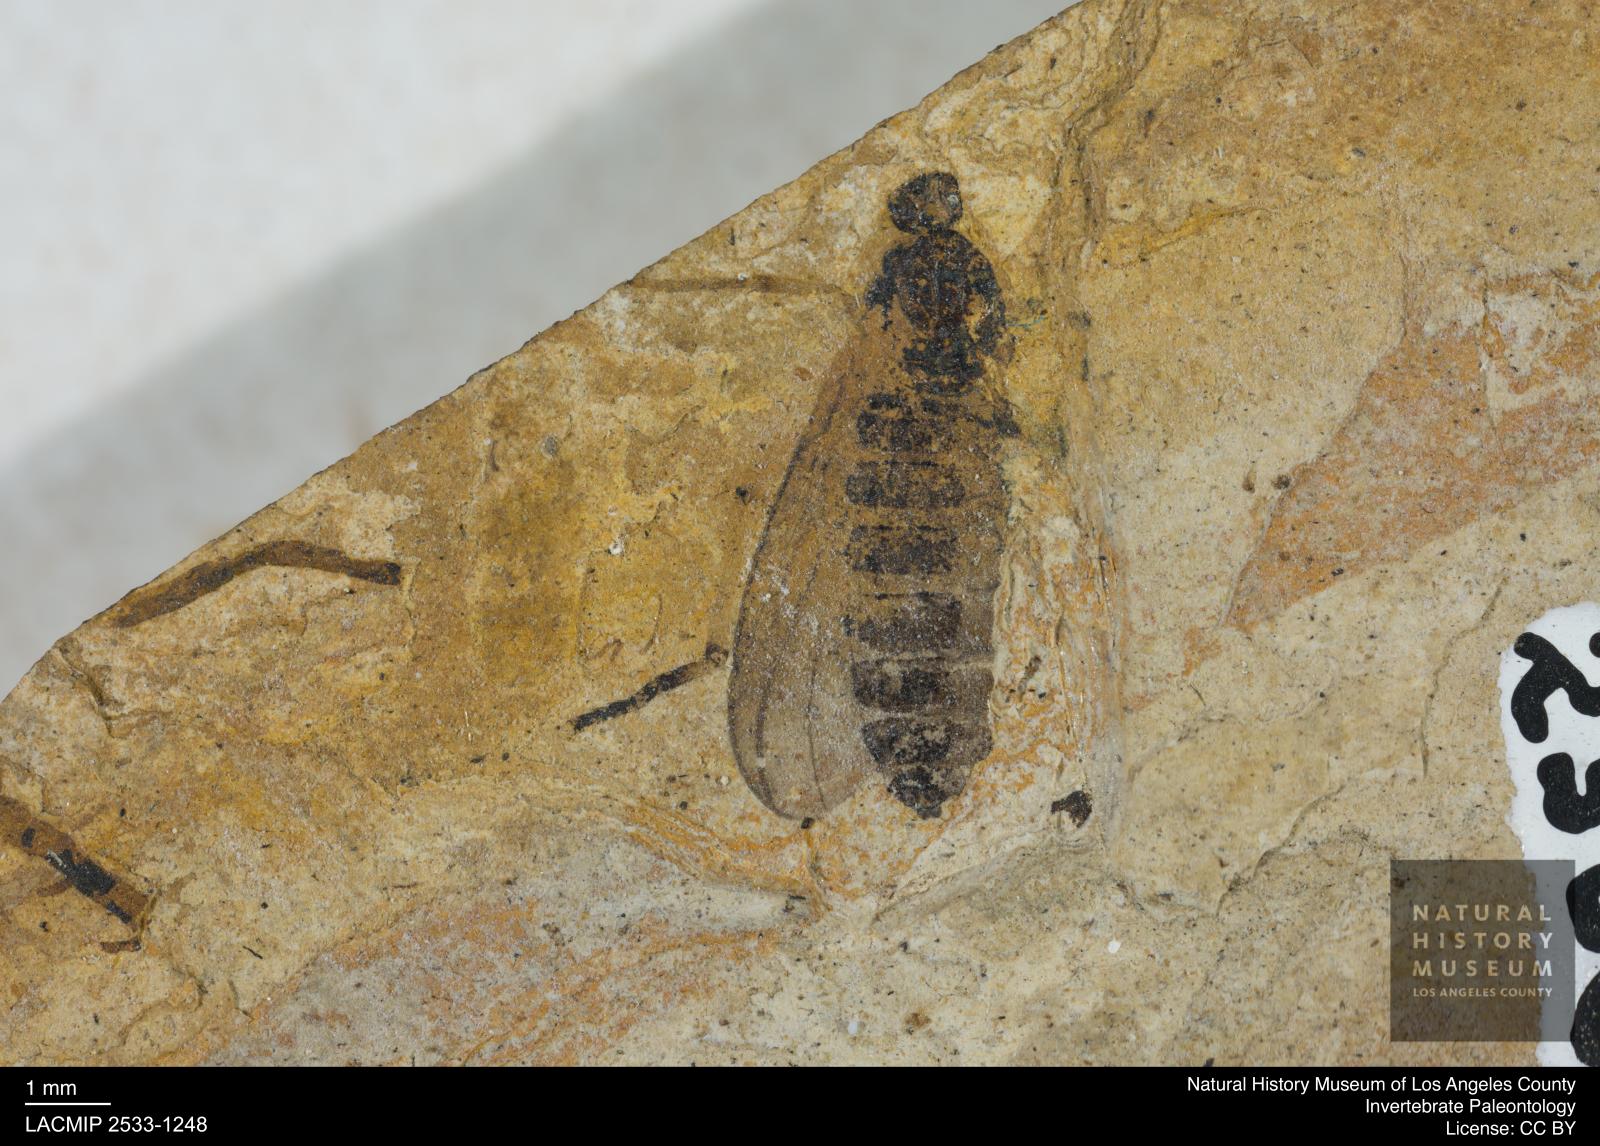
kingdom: Animalia
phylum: Arthropoda
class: Insecta
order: Diptera
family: Bibionidae
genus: Plecia
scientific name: Plecia pinguis
